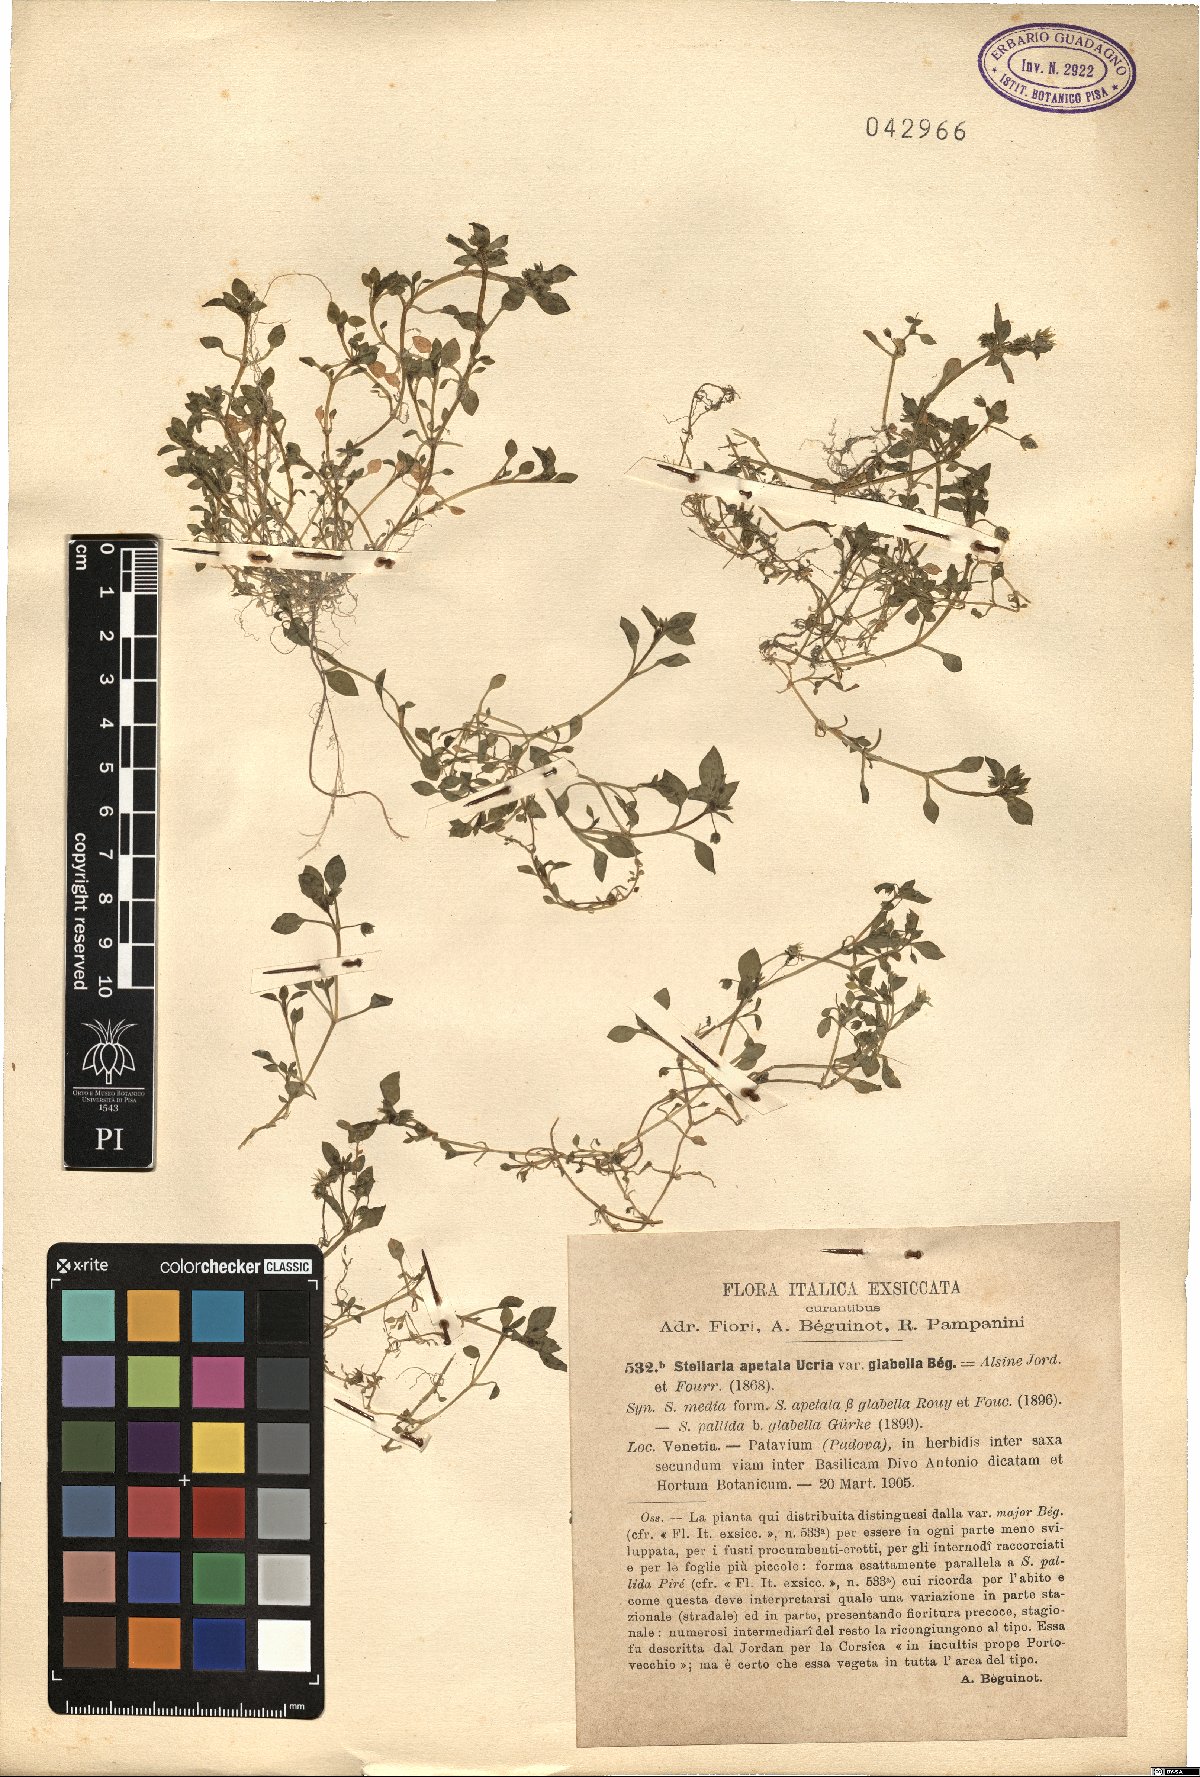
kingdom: Plantae
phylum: Tracheophyta
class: Magnoliopsida
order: Caryophyllales
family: Caryophyllaceae
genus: Stellaria
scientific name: Stellaria apetala
